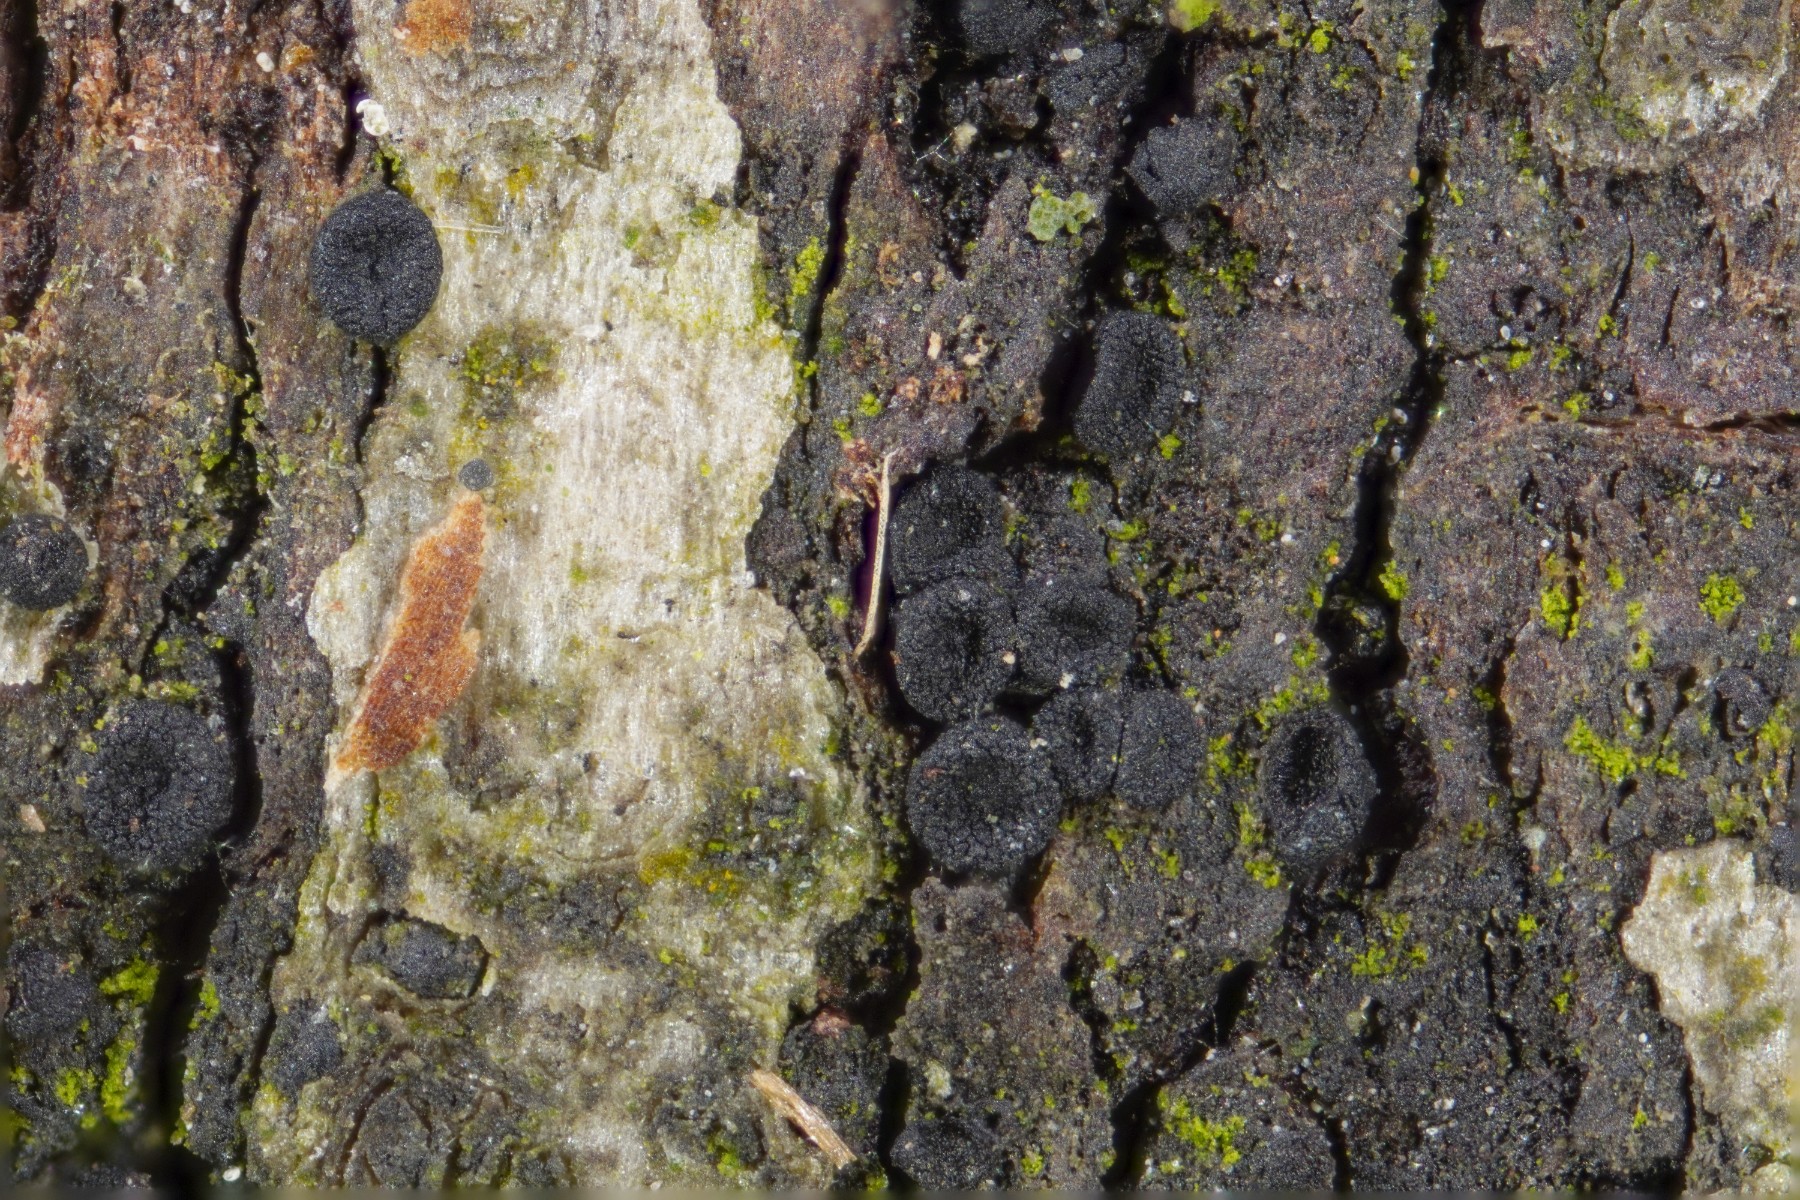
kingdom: Fungi
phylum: Ascomycota
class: Sordariomycetes
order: Coronophorales
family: Nitschkiaceae
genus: Nitschkia
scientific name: Nitschkia cupularis
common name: almindelig skålkerne
